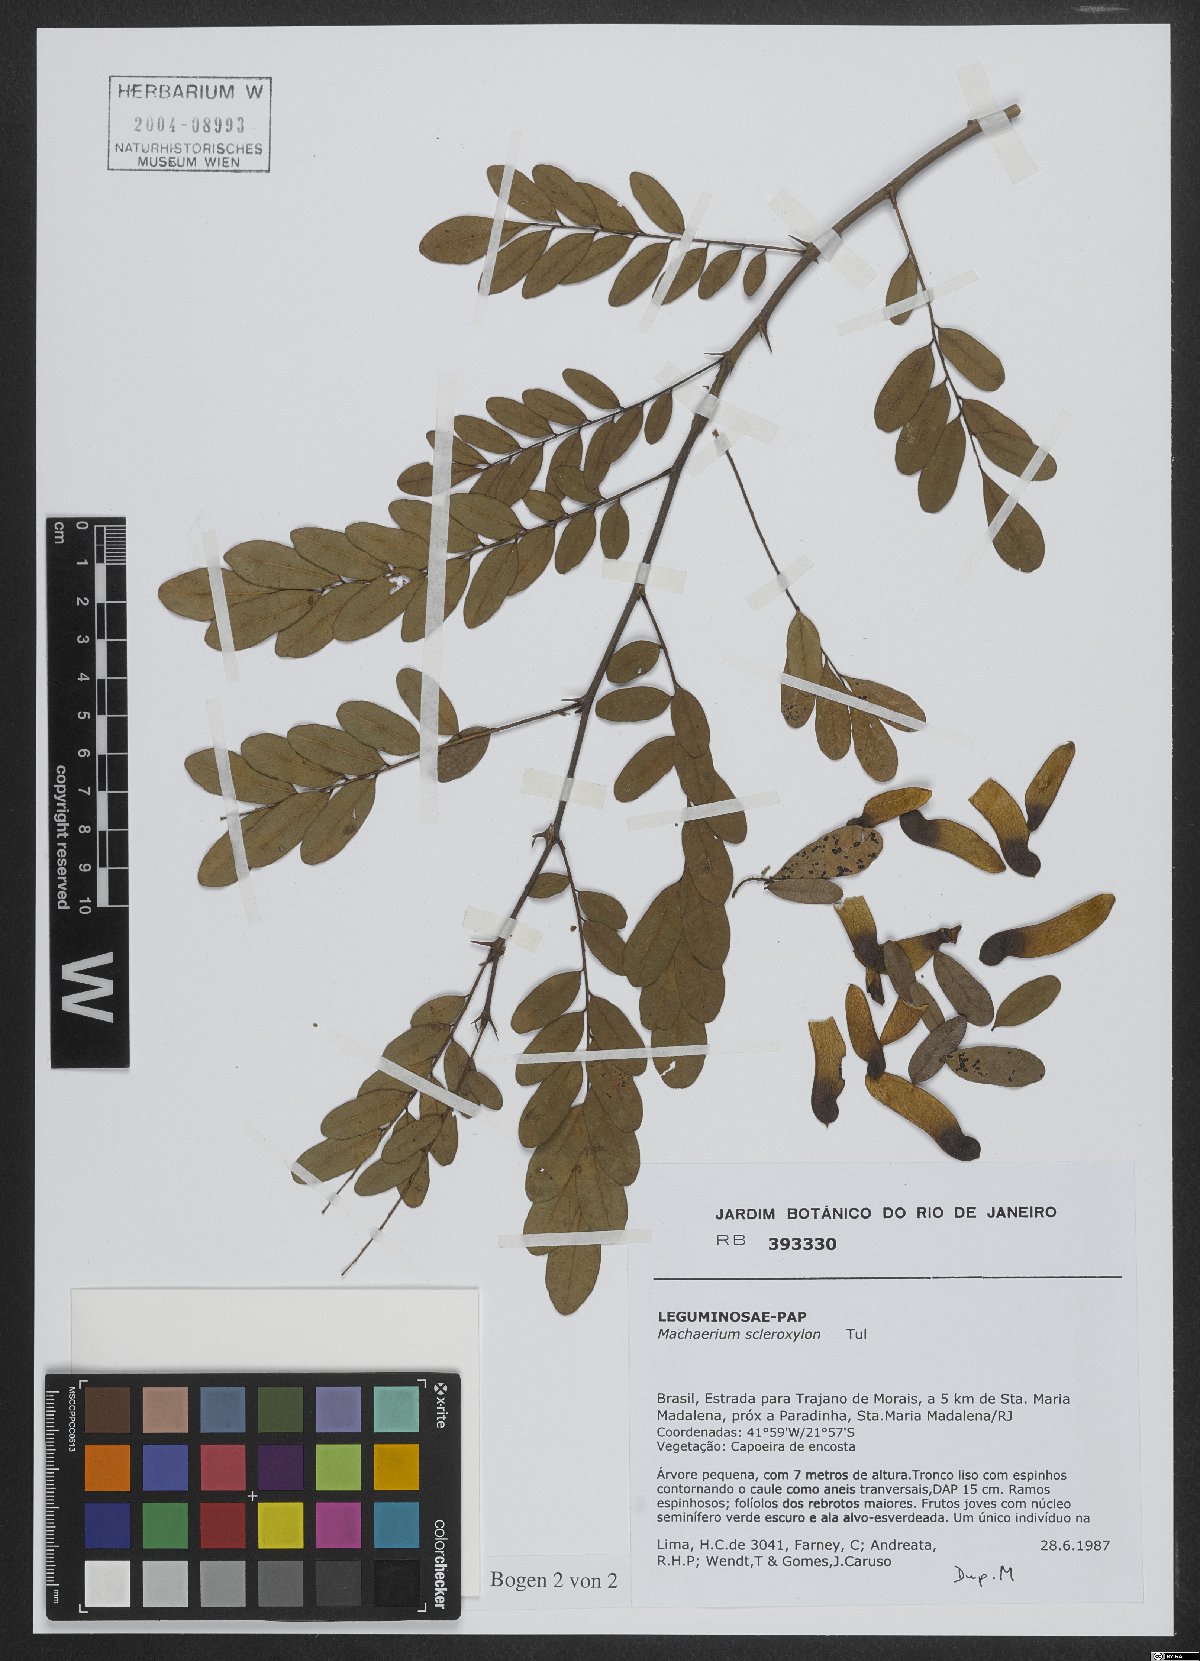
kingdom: Plantae
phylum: Tracheophyta
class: Magnoliopsida
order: Fabales
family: Fabaceae
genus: Machaerium
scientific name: Machaerium scleroxylon
